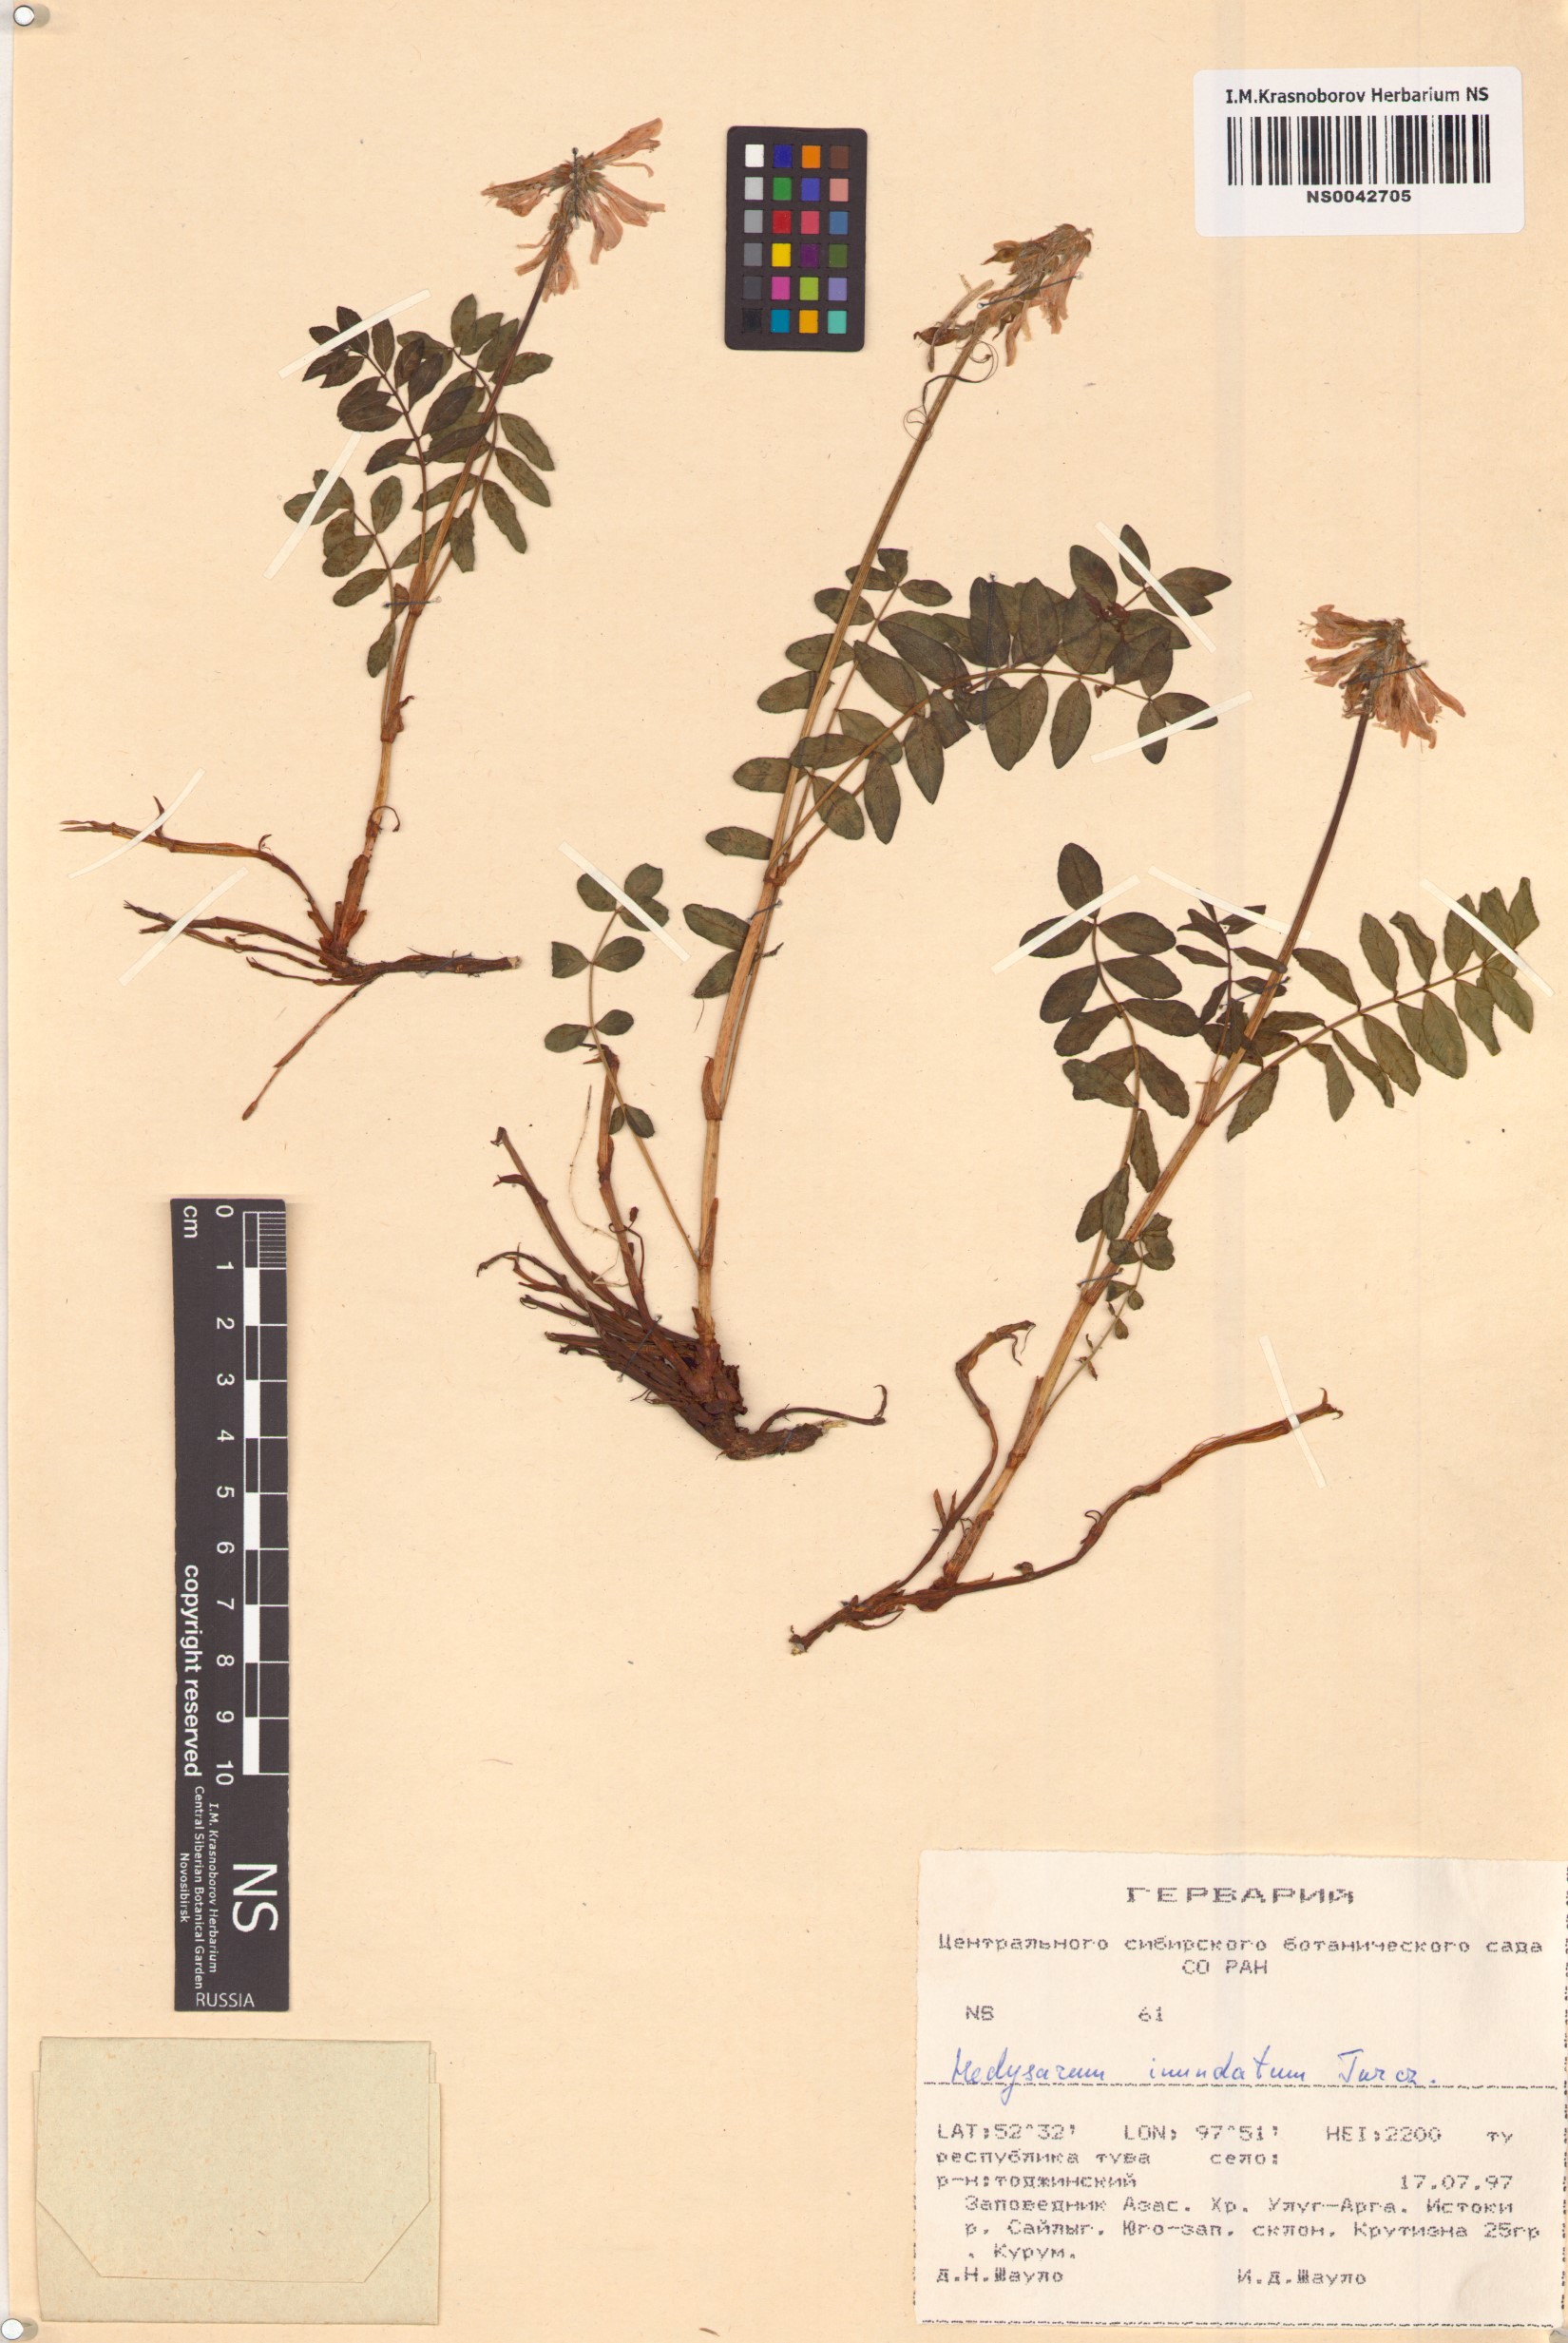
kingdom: Plantae
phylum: Tracheophyta
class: Magnoliopsida
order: Fabales
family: Fabaceae
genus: Hedysarum
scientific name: Hedysarum inundatum
